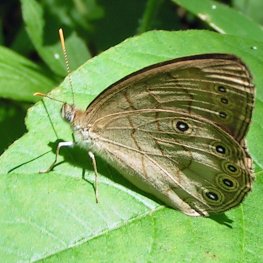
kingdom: Animalia
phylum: Arthropoda
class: Insecta
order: Lepidoptera
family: Nymphalidae
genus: Lethe
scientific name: Lethe eurydice
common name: Eyed Brown
